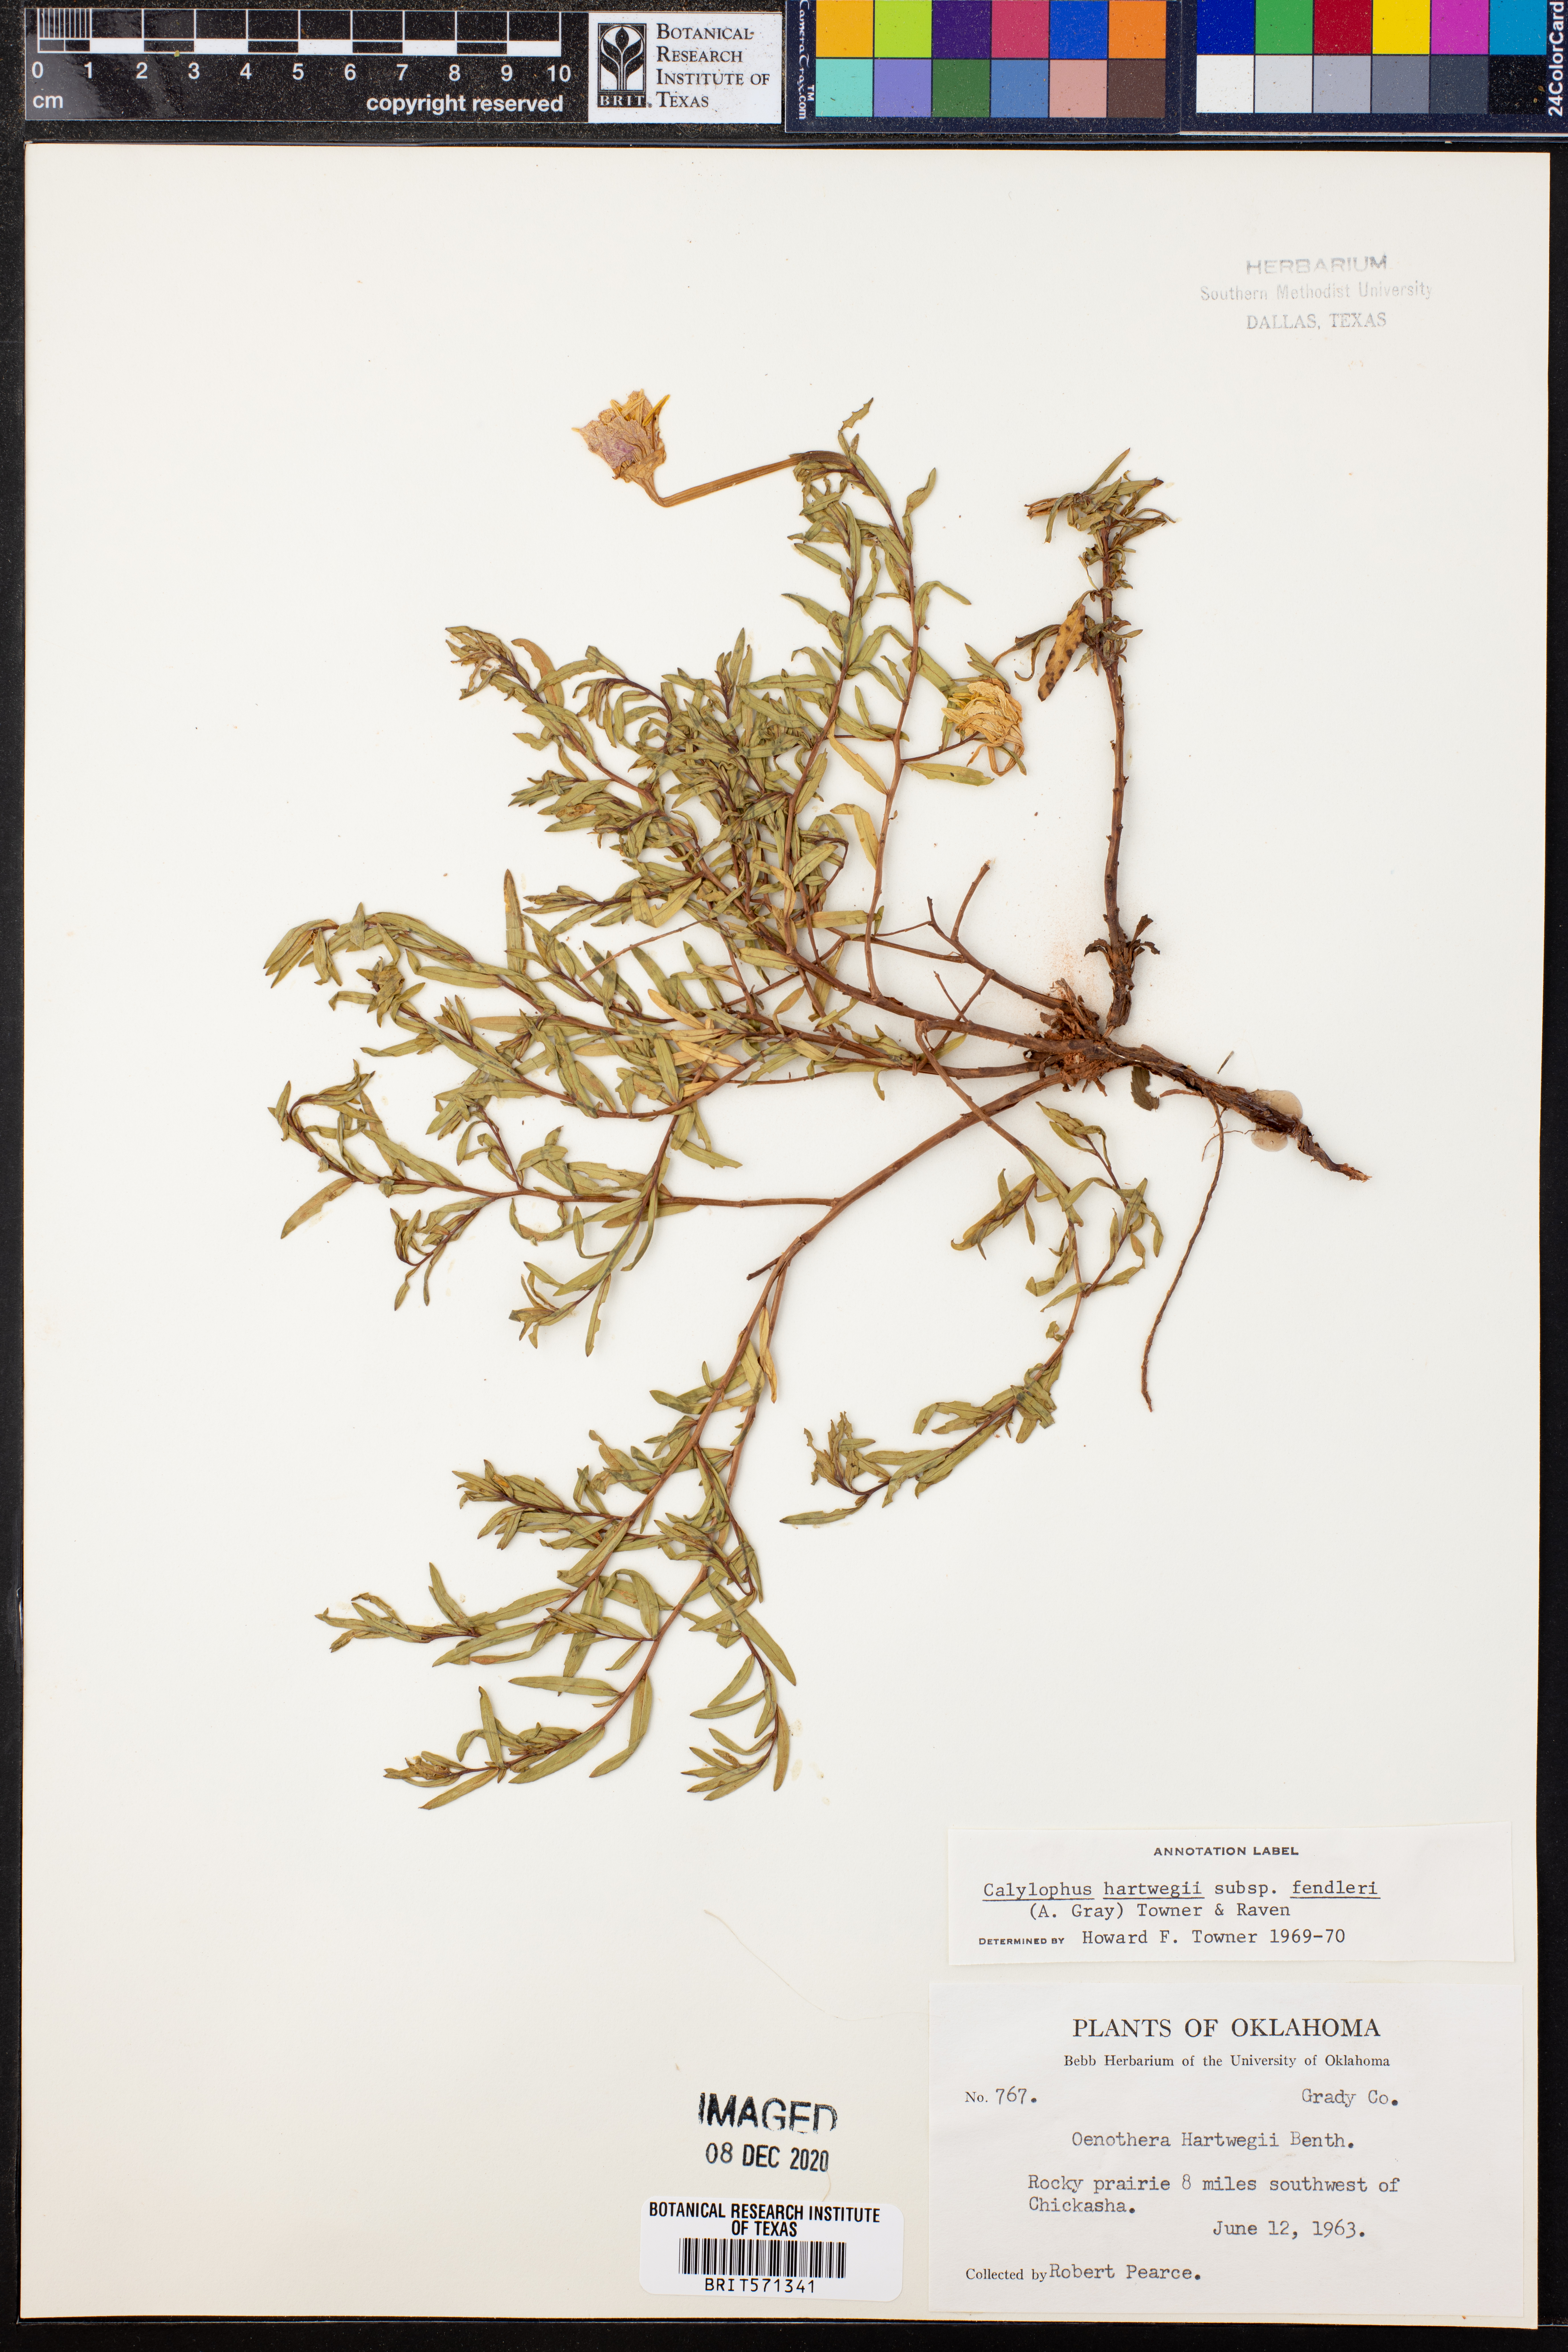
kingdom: Plantae
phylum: Tracheophyta
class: Magnoliopsida
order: Myrtales
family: Onagraceae
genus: Oenothera
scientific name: Oenothera hartwegii
